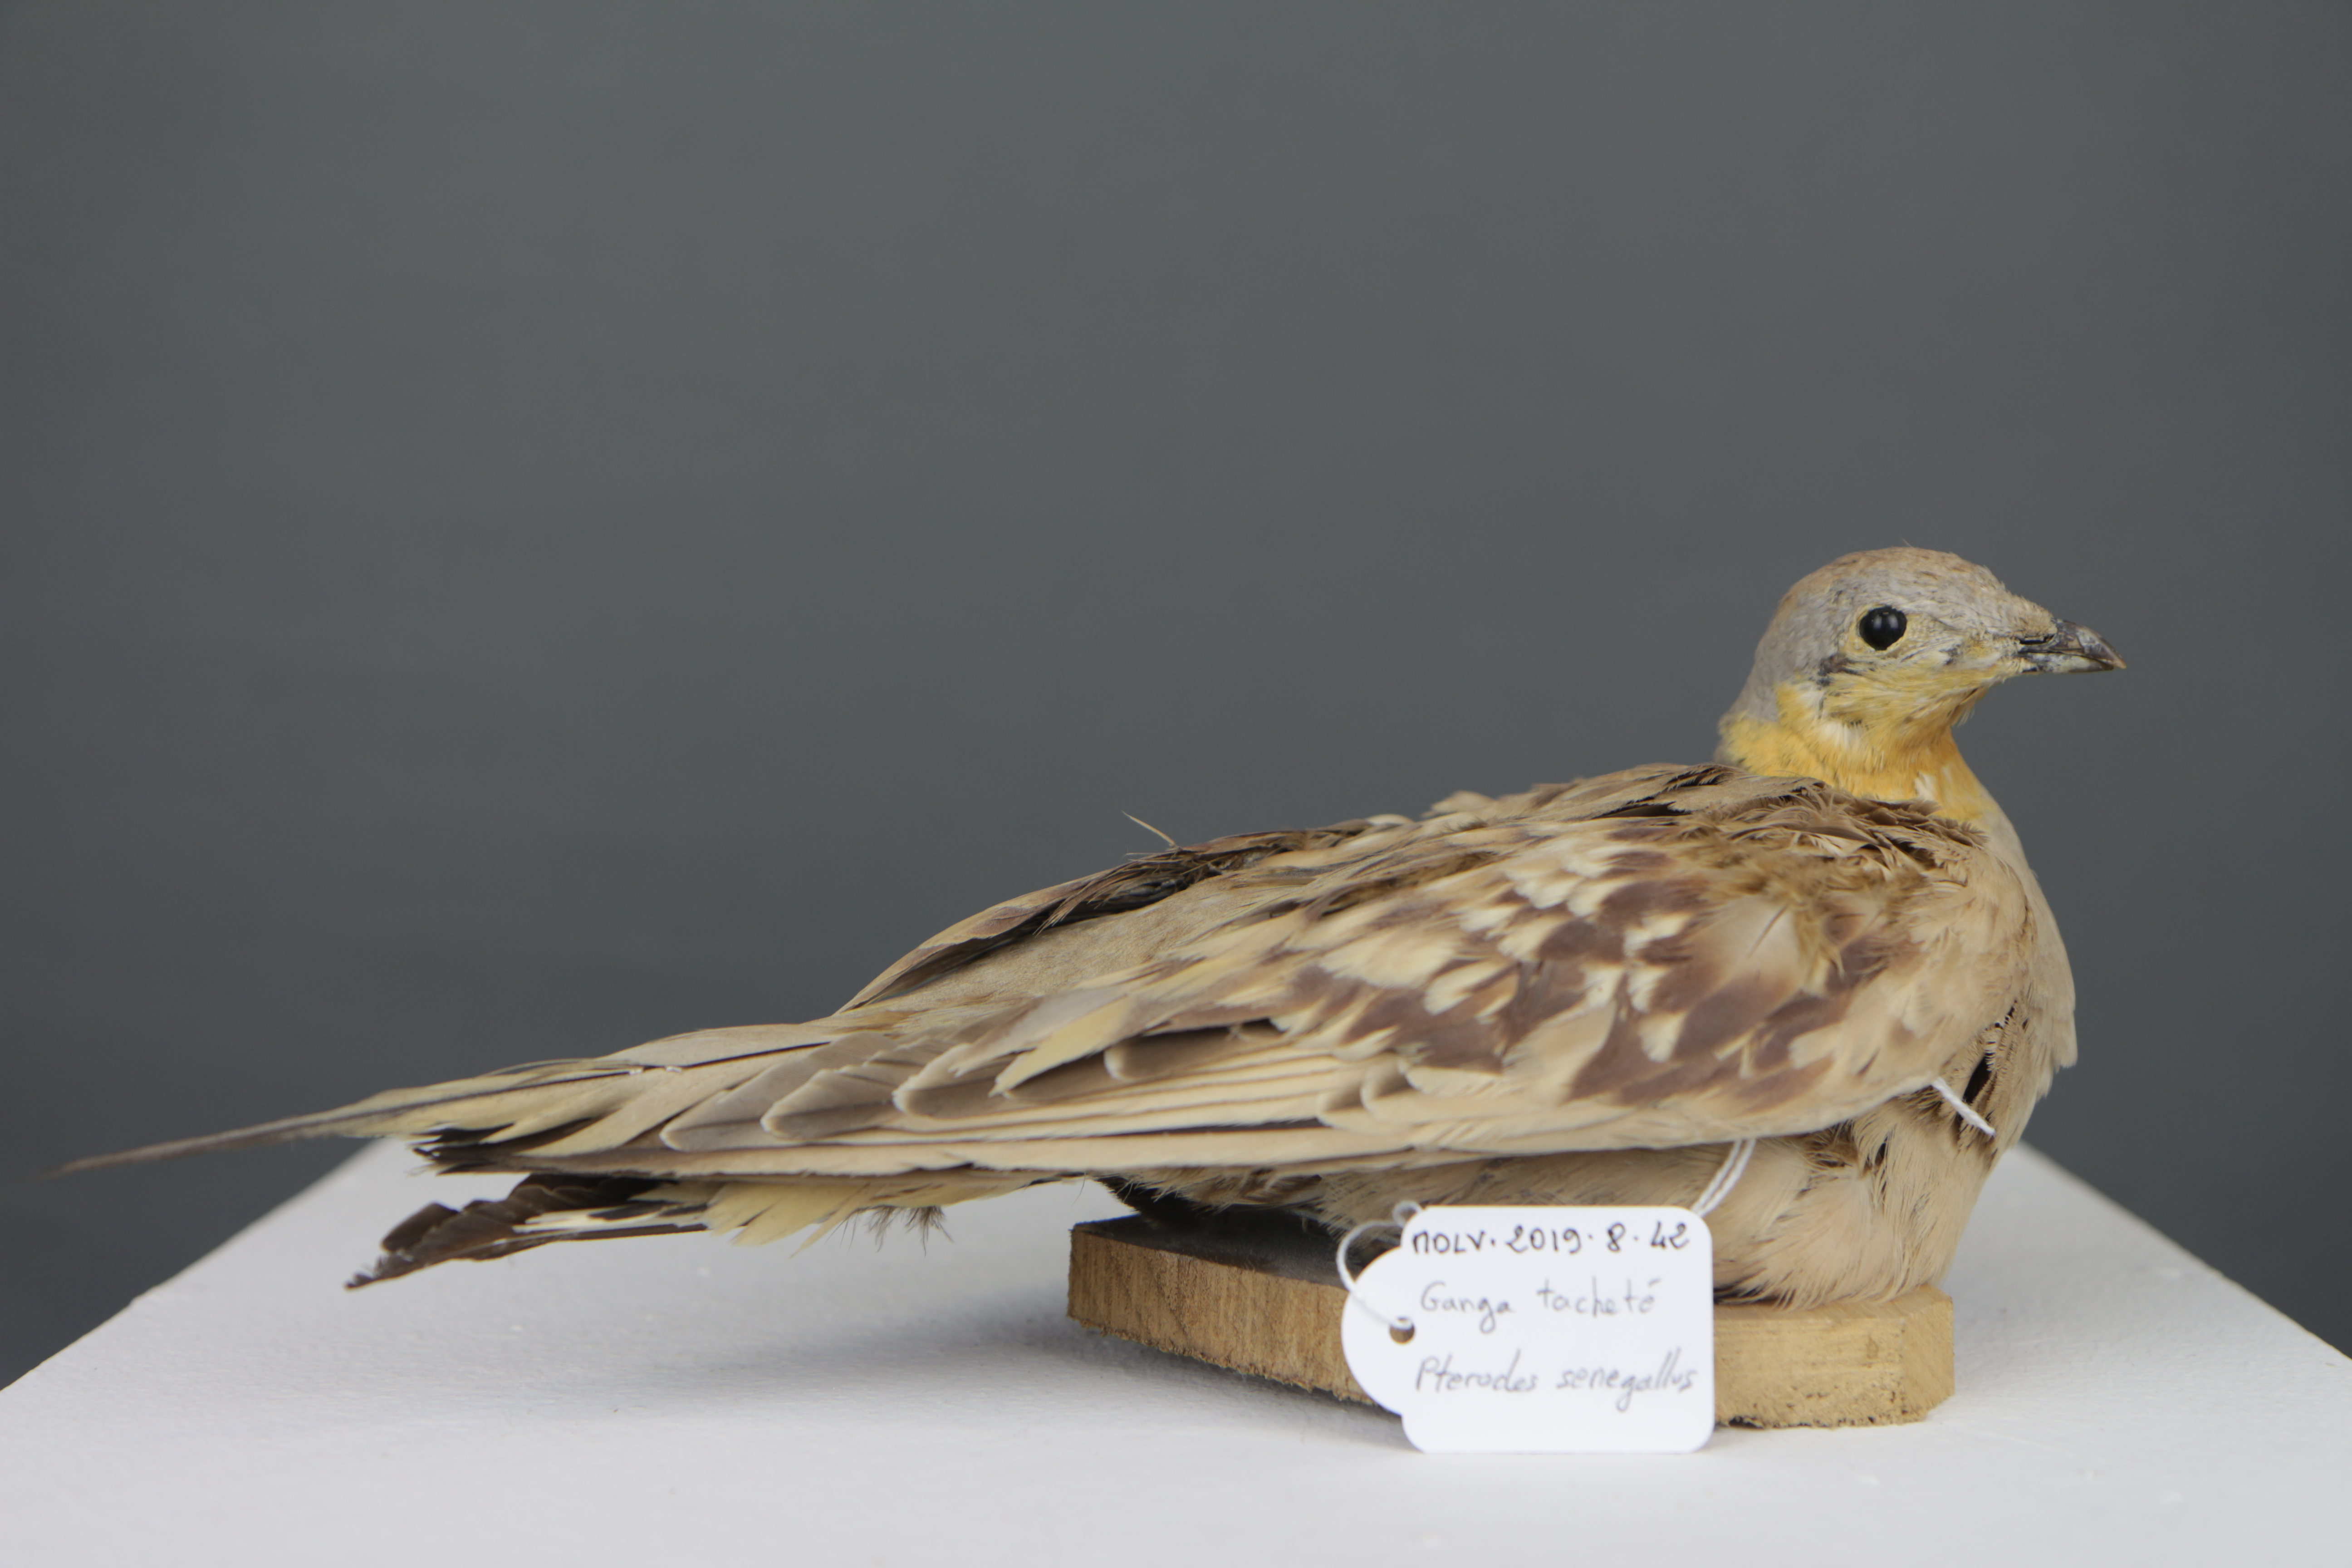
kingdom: Animalia
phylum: Chordata
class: Aves
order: Pteroclidiformes
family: Pteroclididae
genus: Pterocles
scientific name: Pterocles senegallus
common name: Spotted sandgrouse
